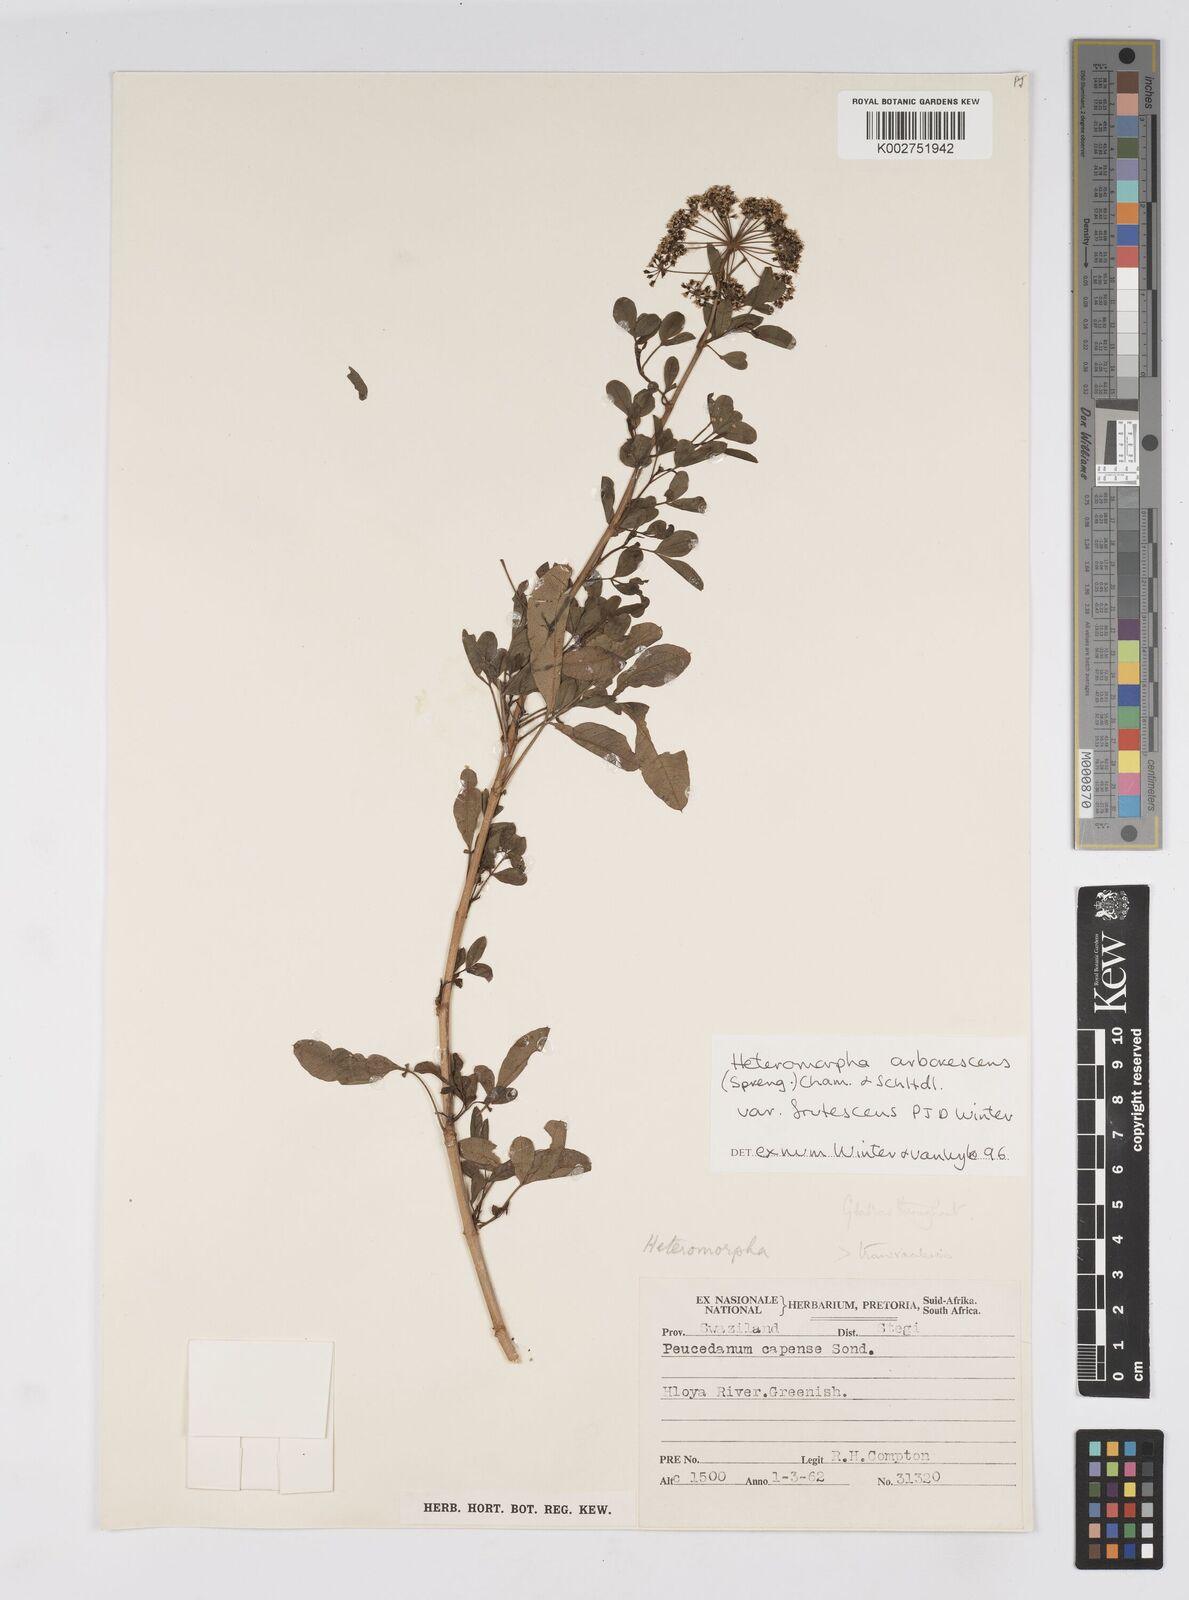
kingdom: Plantae
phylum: Tracheophyta
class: Magnoliopsida
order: Apiales
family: Apiaceae
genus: Heteromorpha
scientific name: Heteromorpha arborescens
